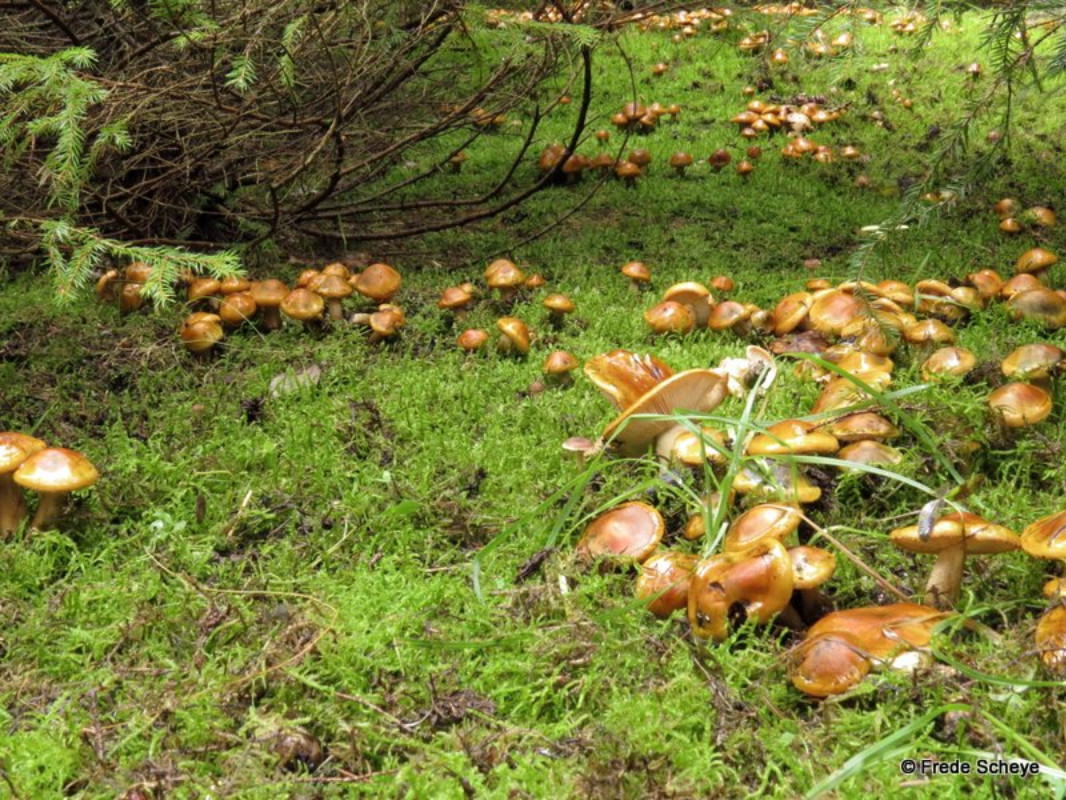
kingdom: Fungi
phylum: Basidiomycota
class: Agaricomycetes
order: Agaricales
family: Tricholomataceae
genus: Tricholoma
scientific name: Tricholoma aurantium
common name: orangegul ridderhat
